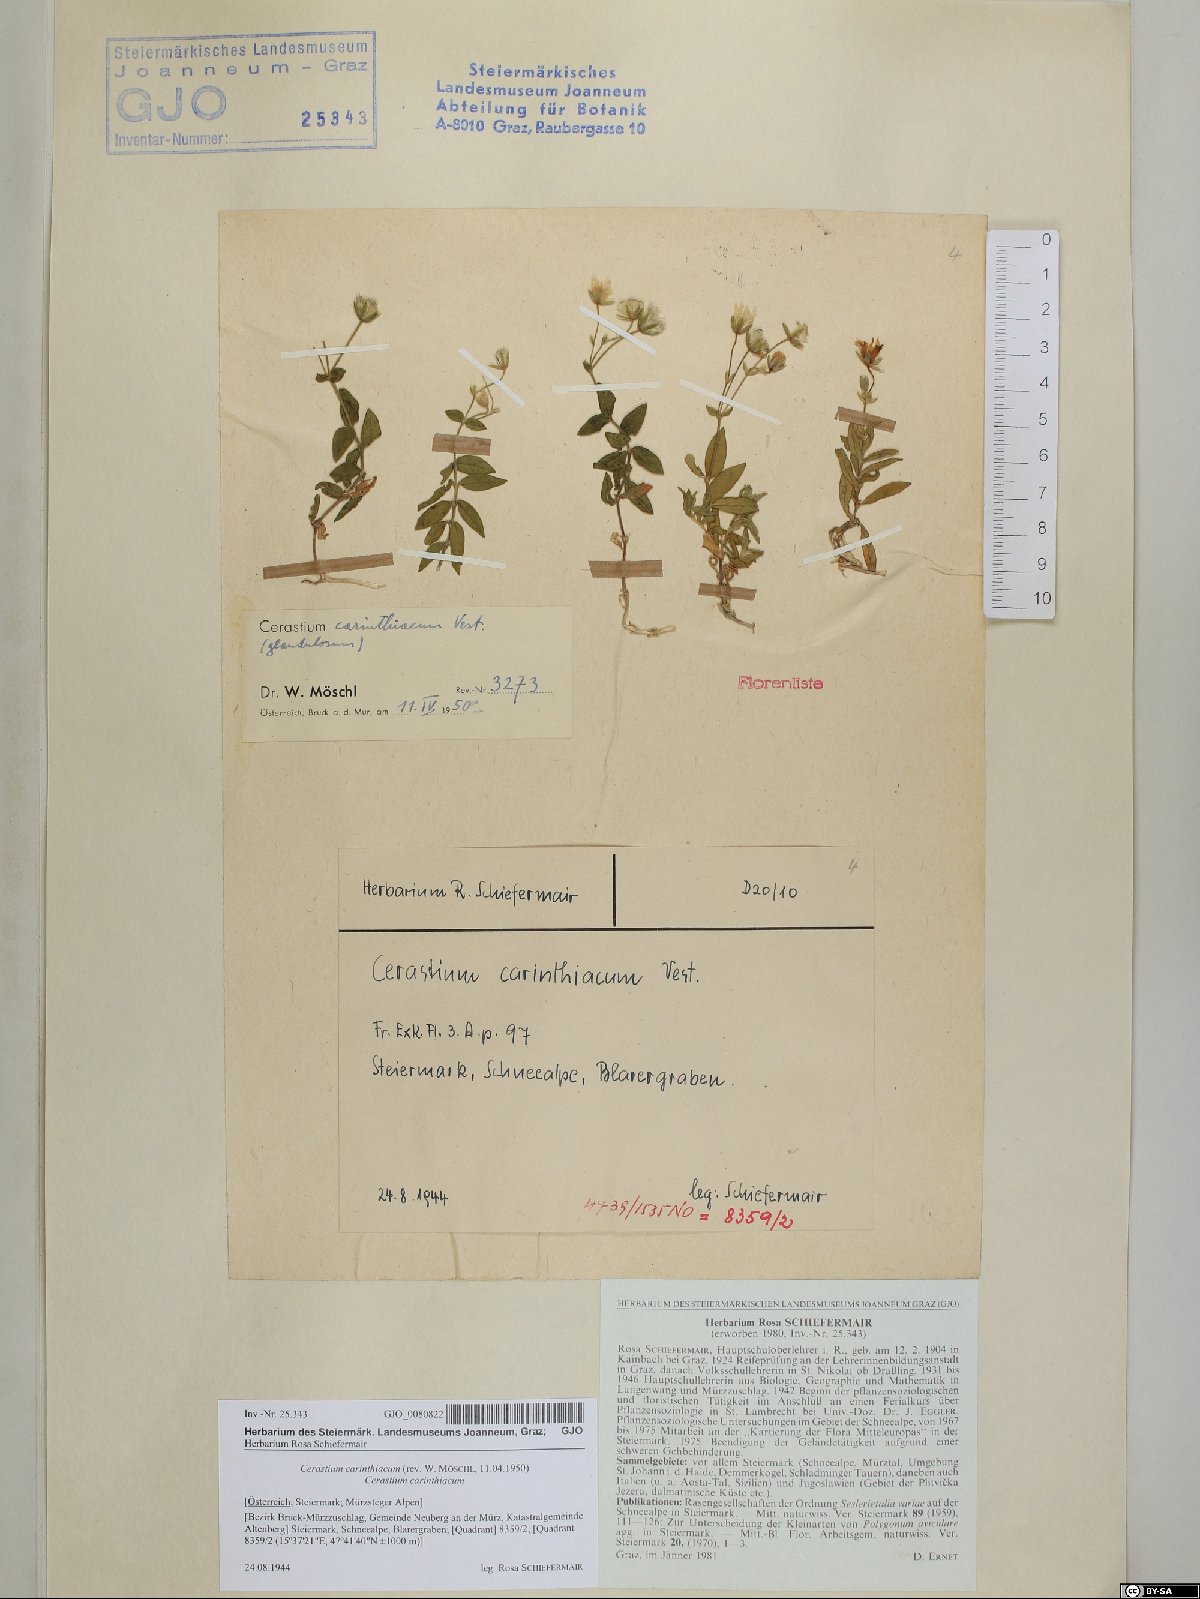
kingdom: Plantae
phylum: Tracheophyta
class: Magnoliopsida
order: Caryophyllales
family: Caryophyllaceae
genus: Cerastium
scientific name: Cerastium carinthiacum
